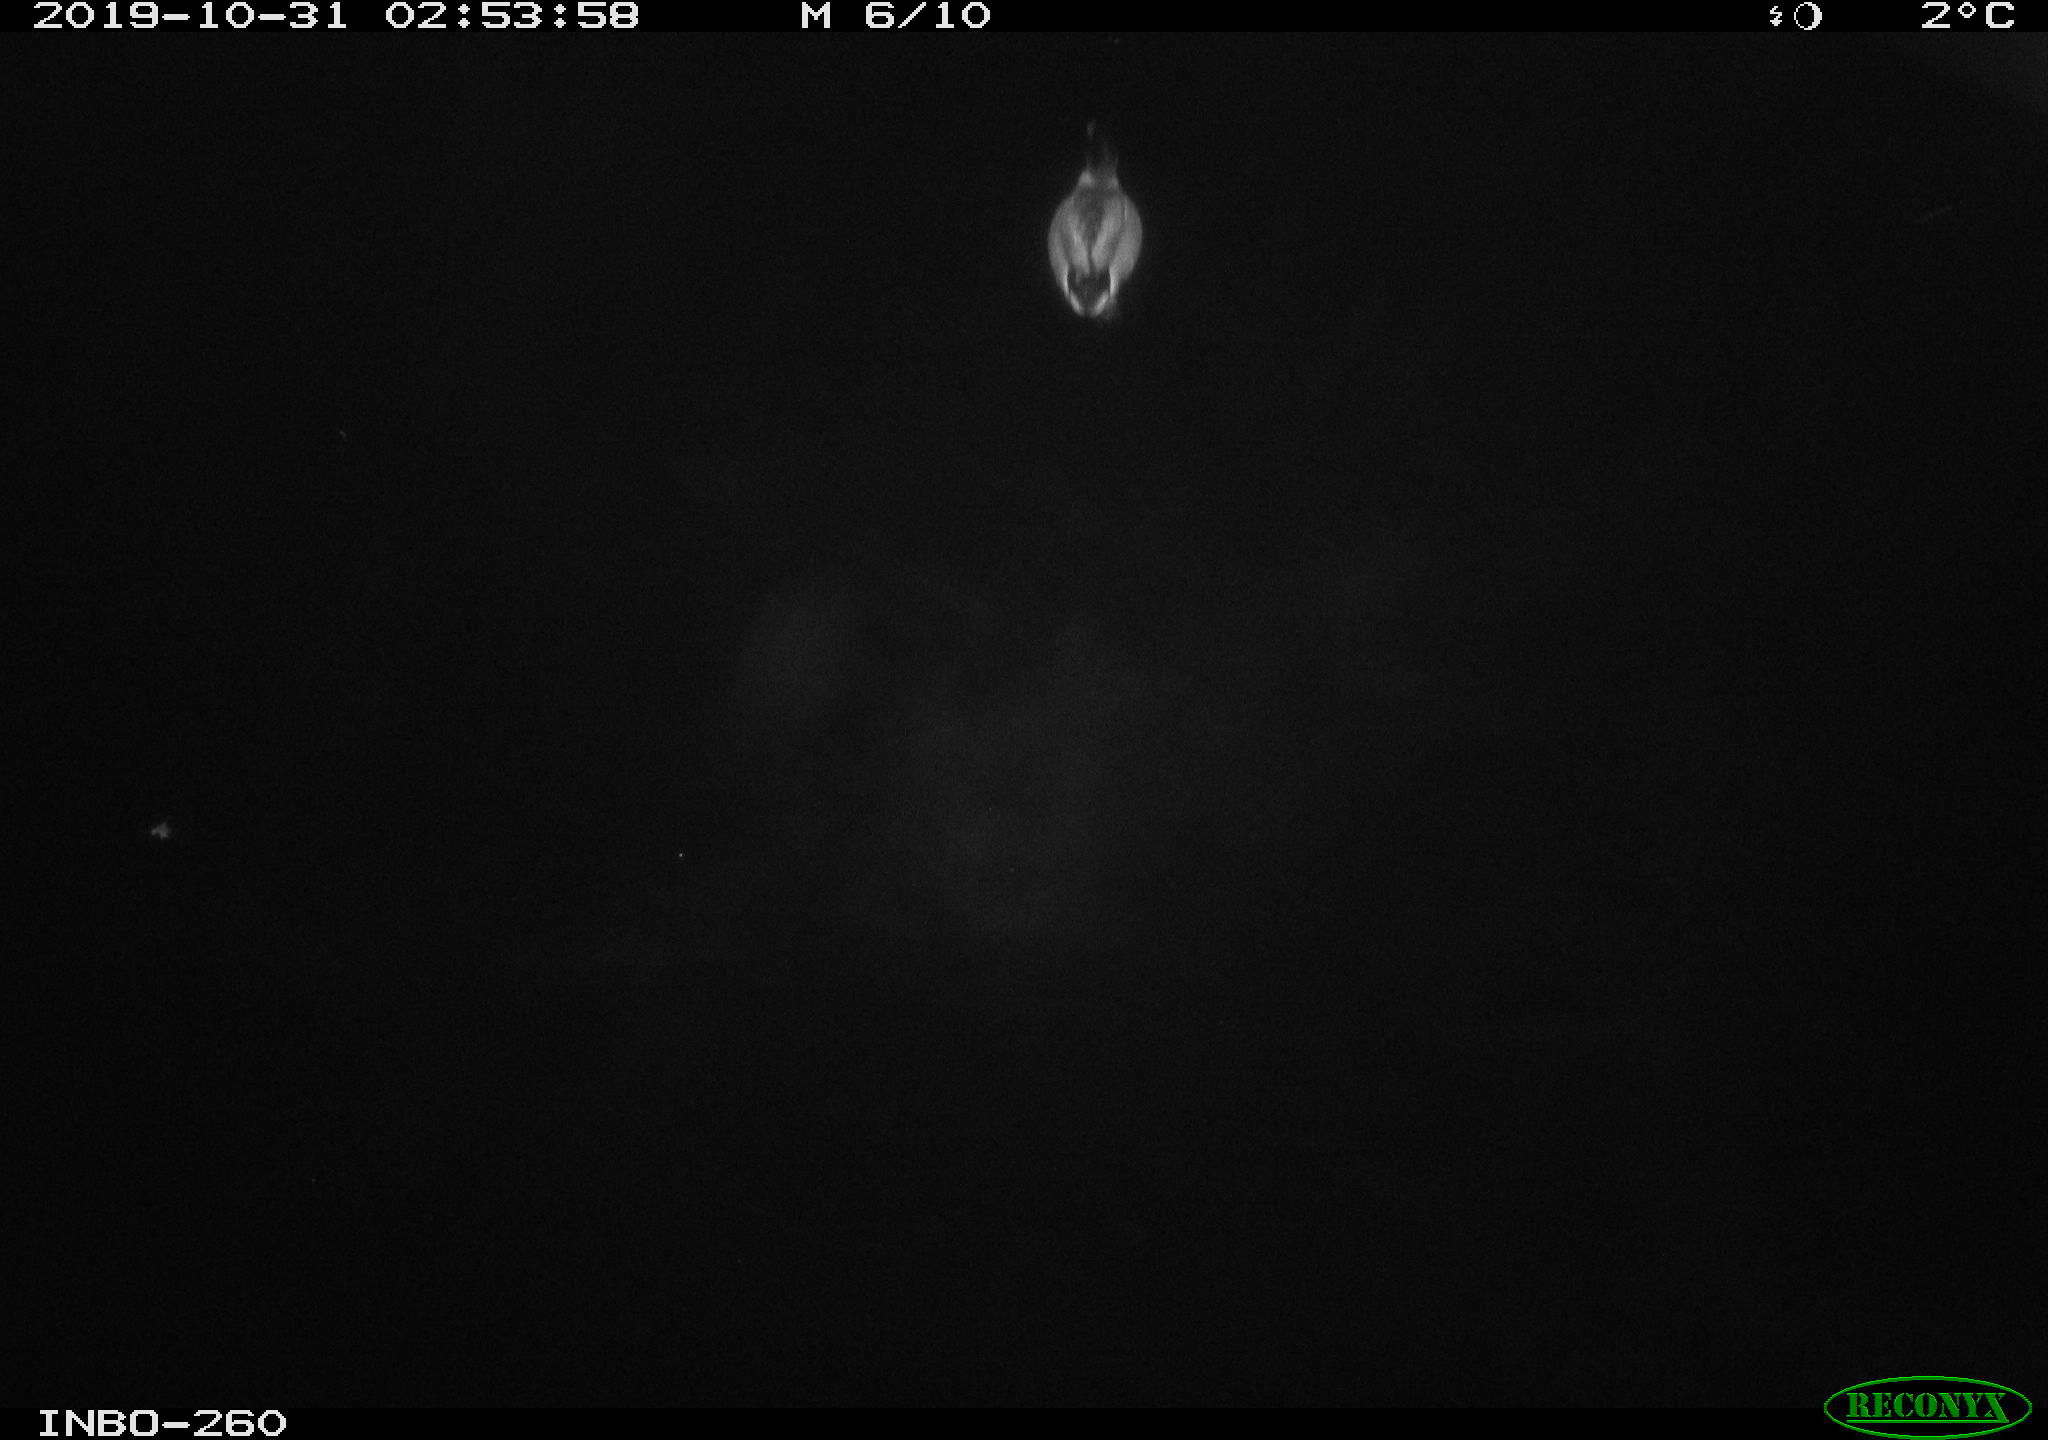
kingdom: Animalia
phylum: Chordata
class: Aves
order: Anseriformes
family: Anatidae
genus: Anas
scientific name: Anas platyrhynchos
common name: Mallard
